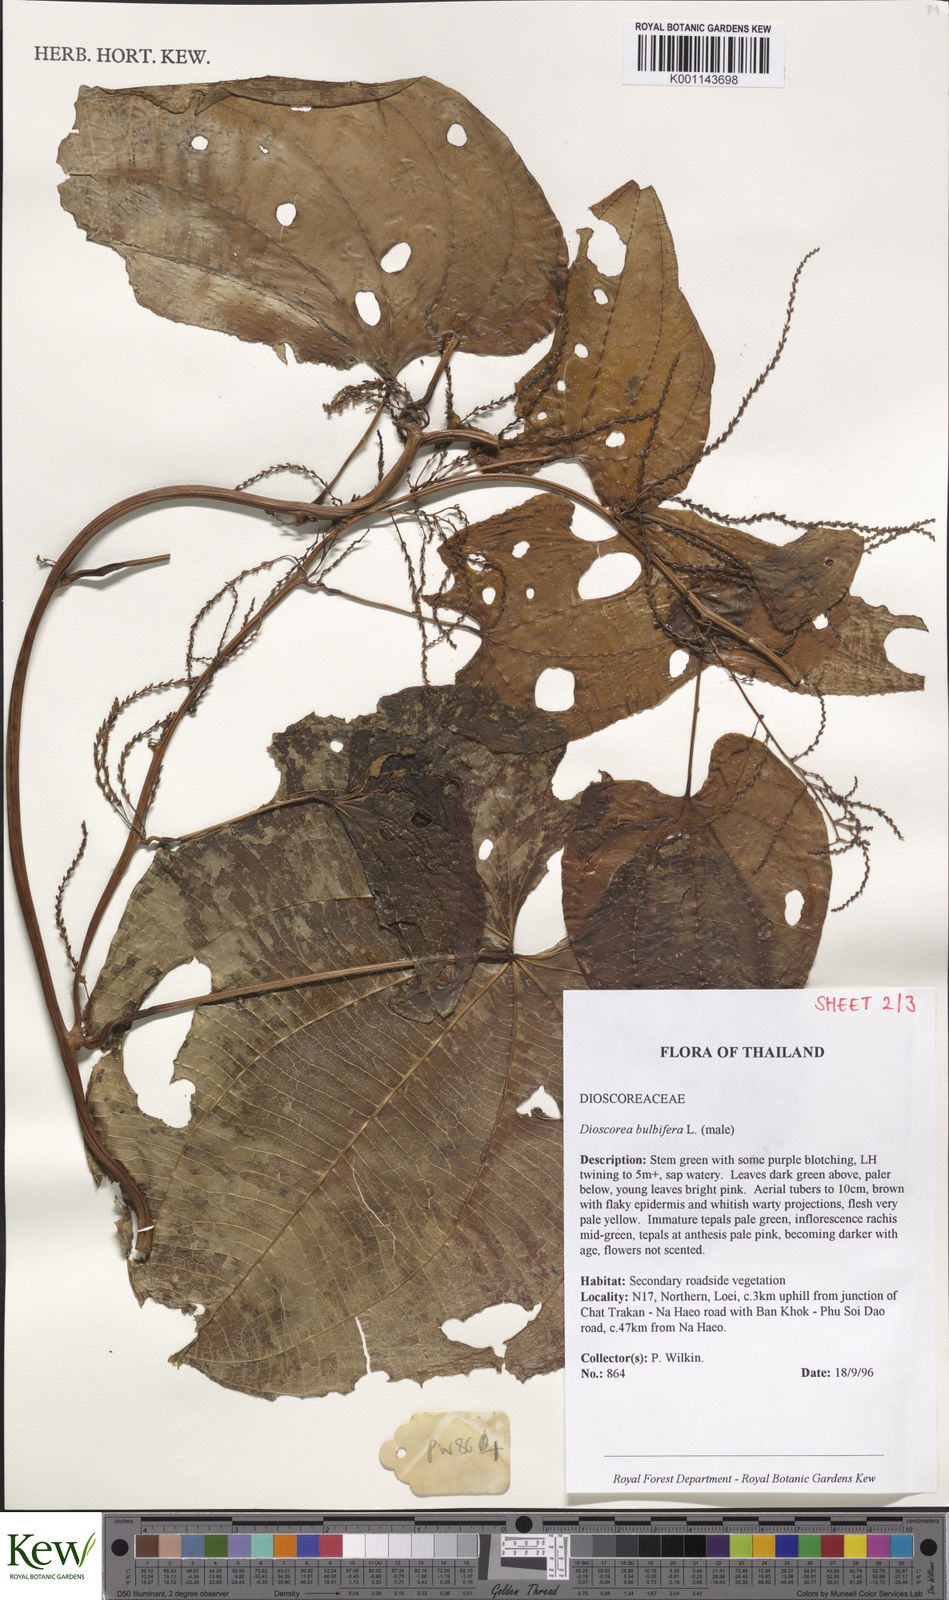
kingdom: Plantae
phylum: Tracheophyta
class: Liliopsida
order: Dioscoreales
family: Dioscoreaceae
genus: Dioscorea
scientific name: Dioscorea bulbifera
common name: Air yam
